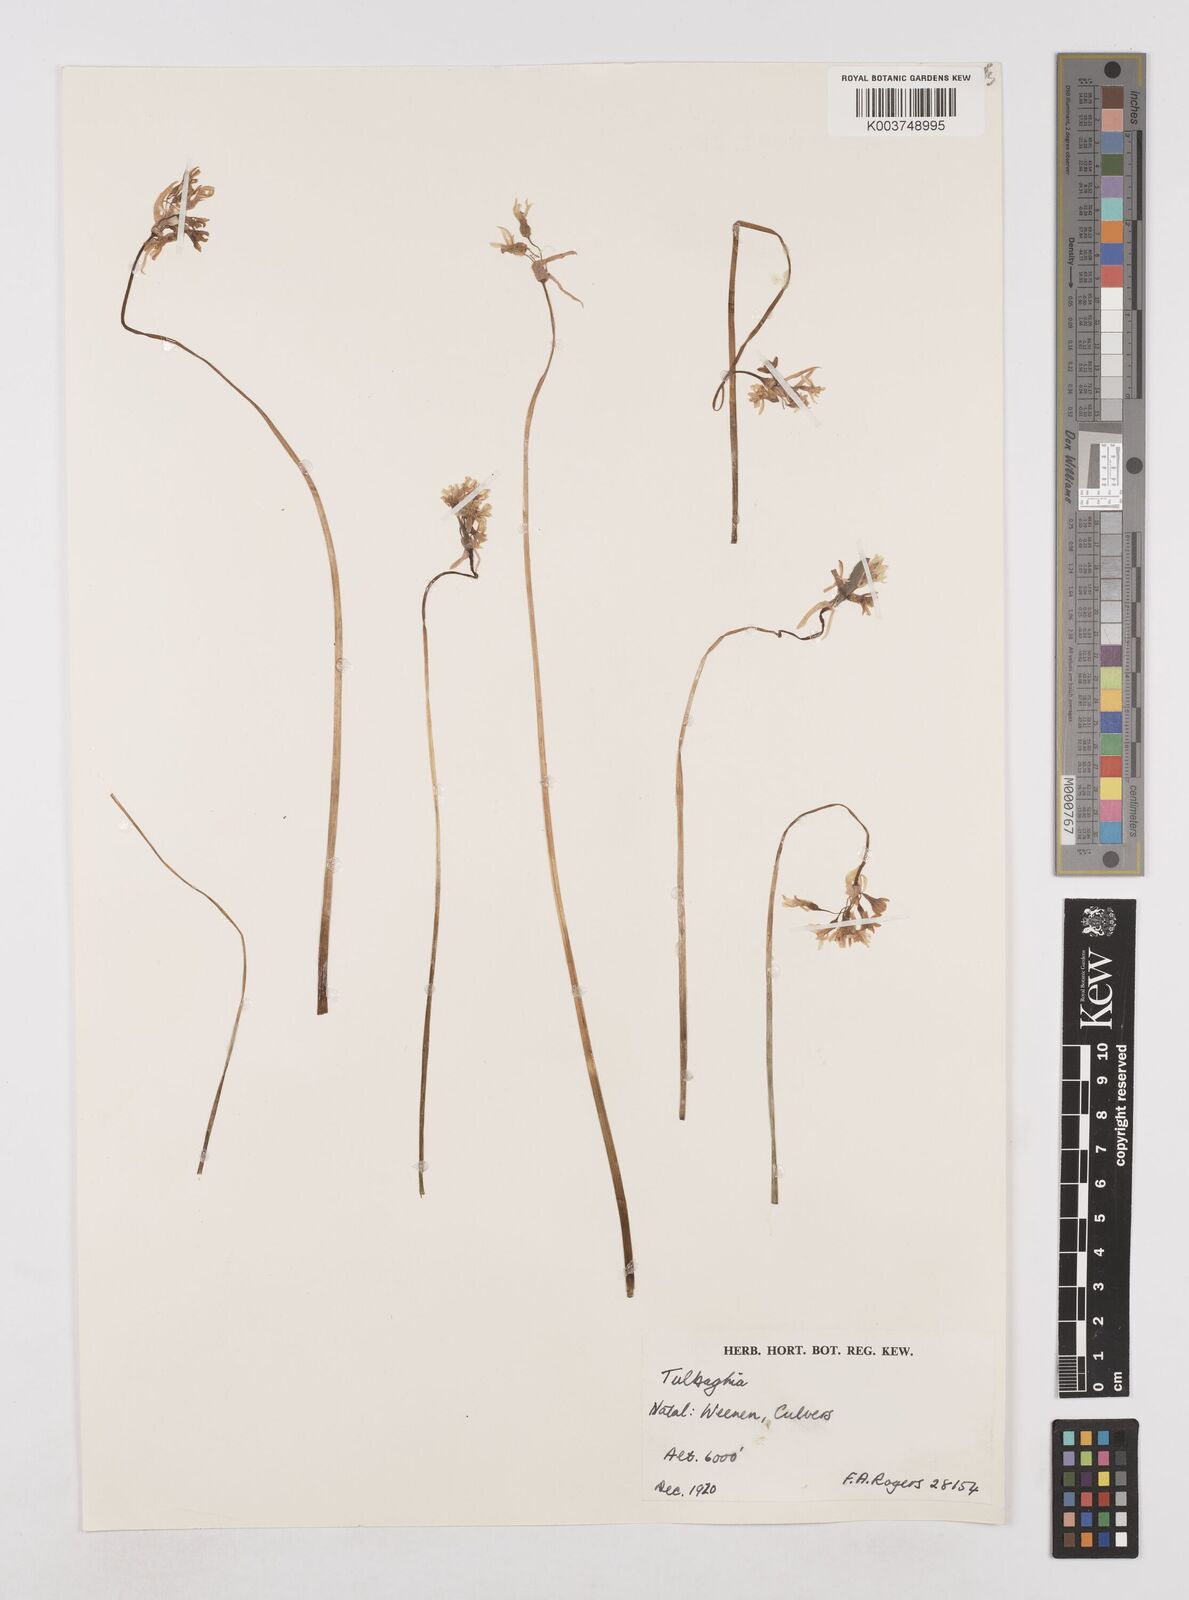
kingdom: Plantae
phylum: Tracheophyta
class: Liliopsida
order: Asparagales
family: Amaryllidaceae
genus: Tulbaghia
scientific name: Tulbaghia natalensis
